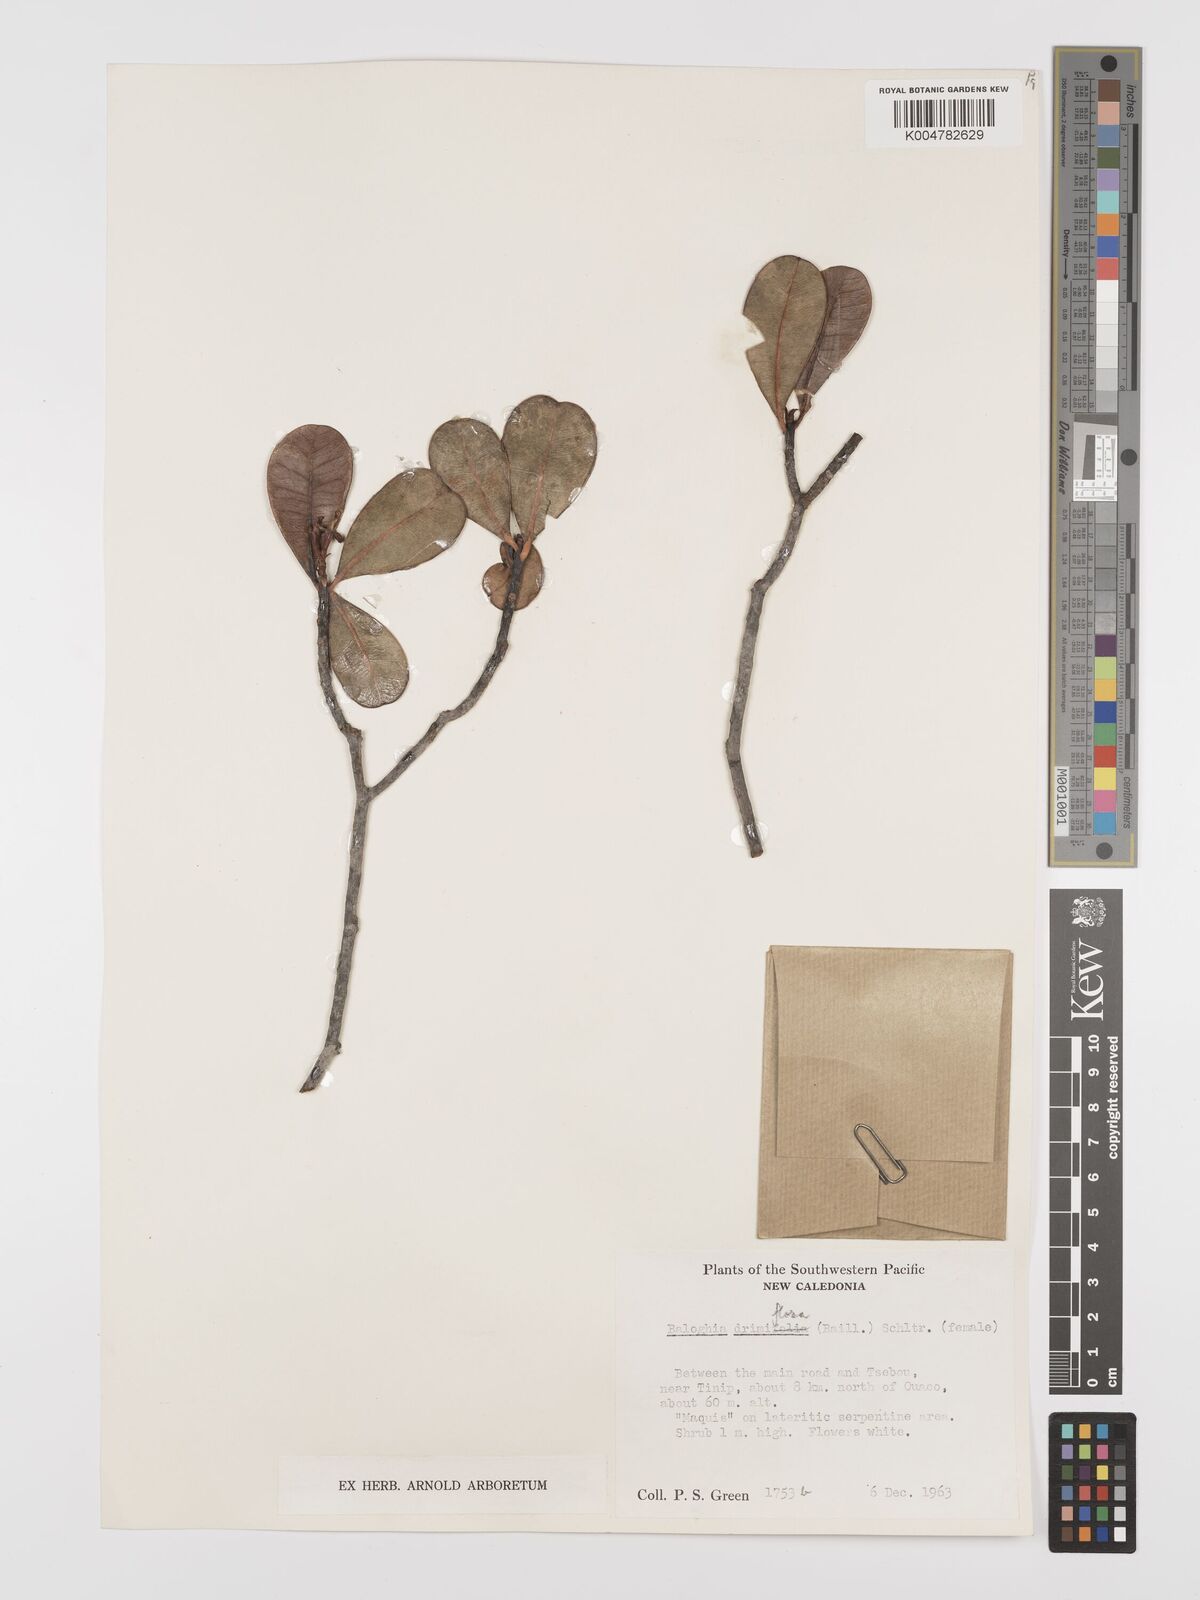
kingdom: Plantae
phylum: Tracheophyta
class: Magnoliopsida
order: Malpighiales
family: Euphorbiaceae
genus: Baloghia
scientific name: Baloghia drimiflora
